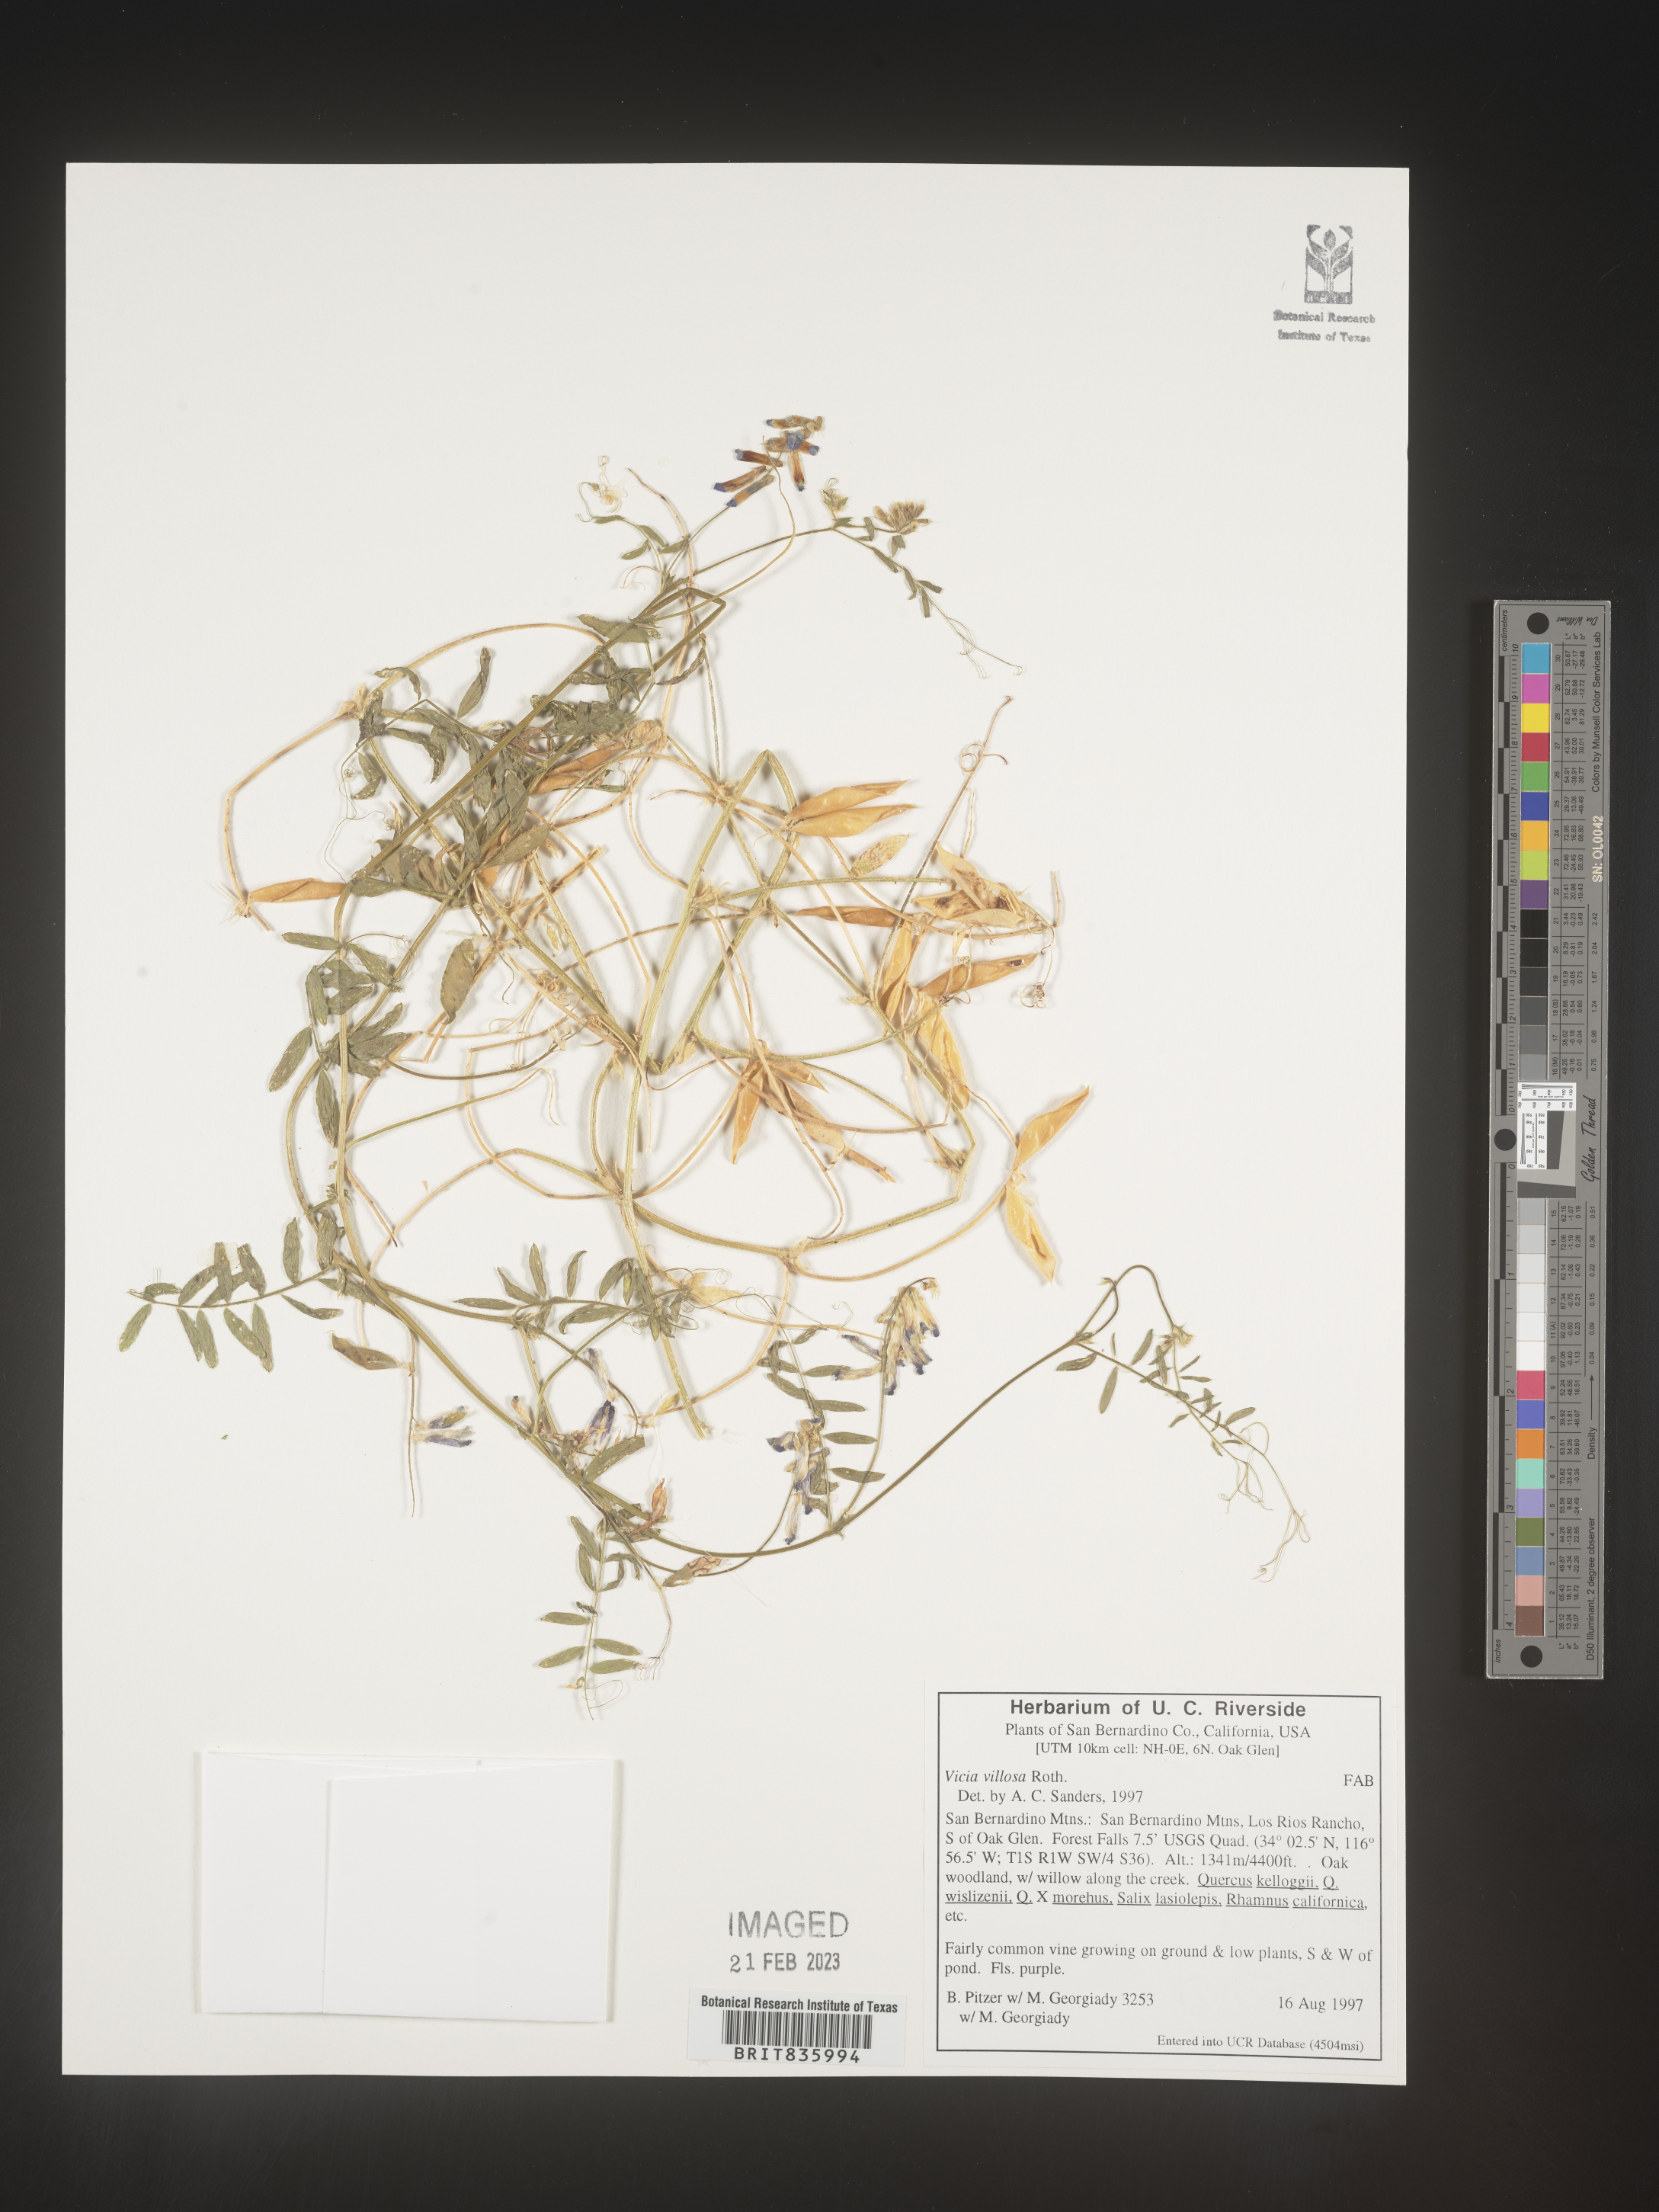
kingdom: Plantae
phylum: Tracheophyta
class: Magnoliopsida
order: Fabales
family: Fabaceae
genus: Vicia
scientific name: Vicia villosa
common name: Fodder vetch
